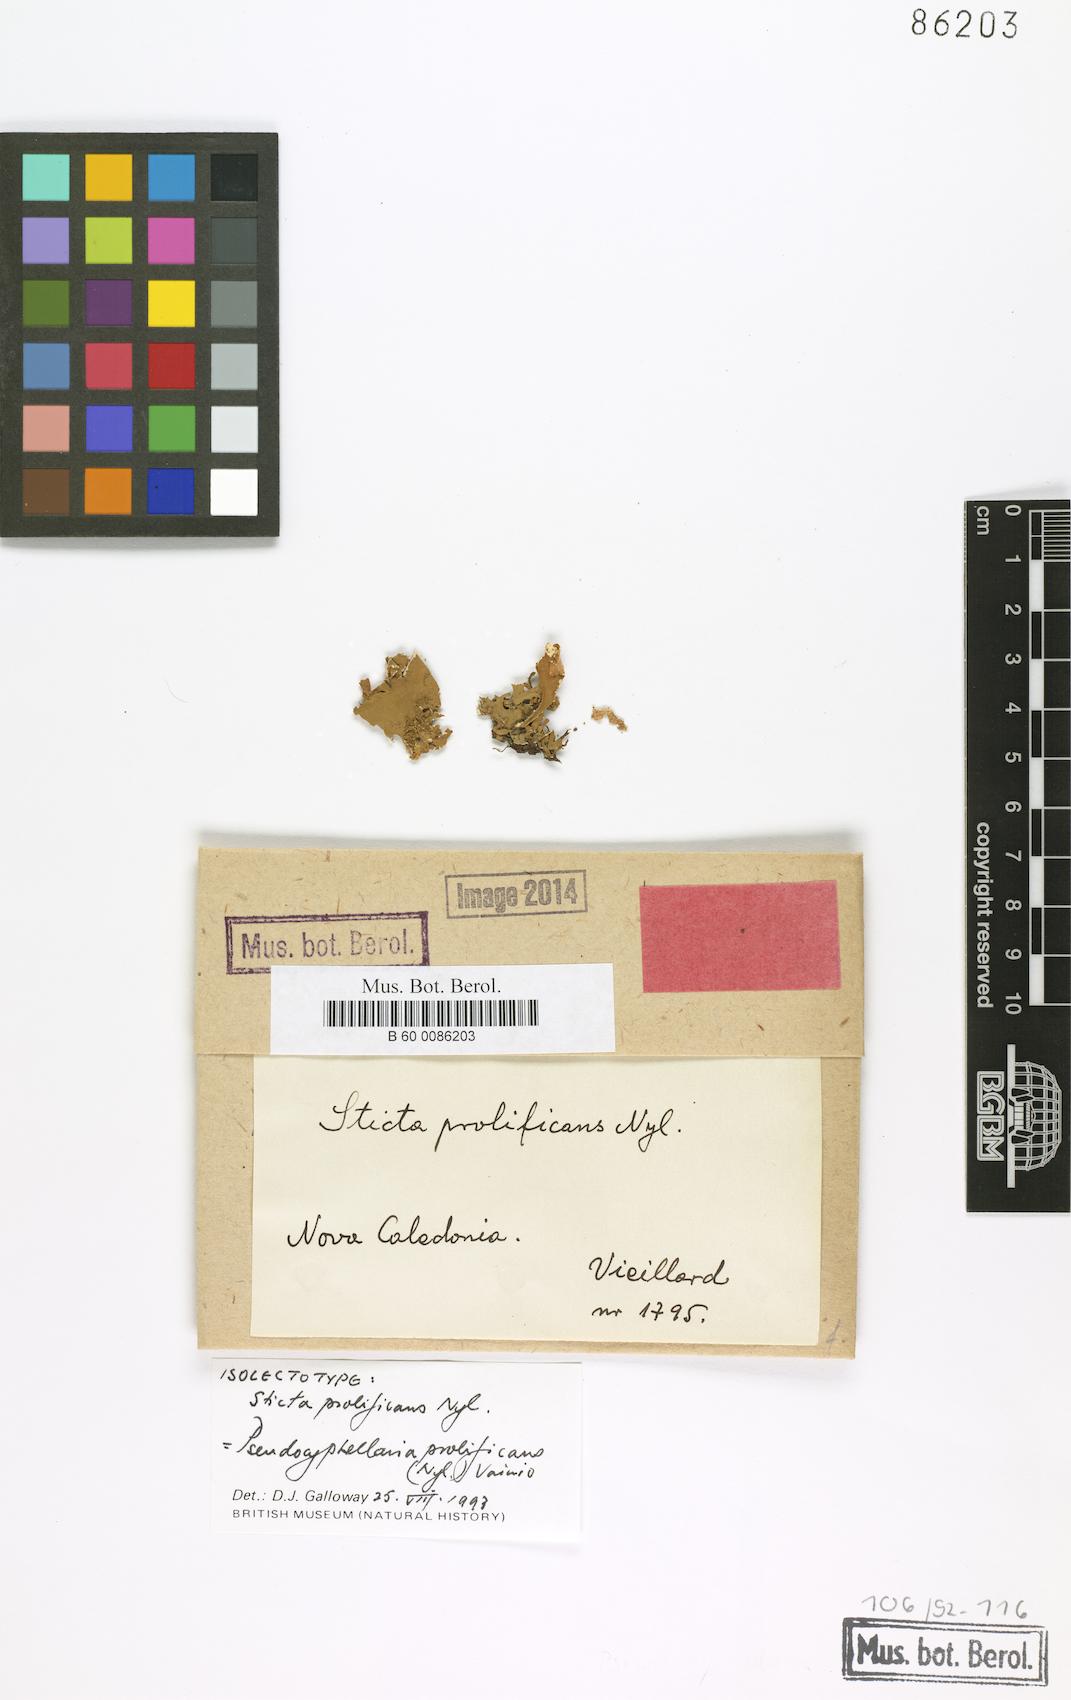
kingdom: Fungi
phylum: Ascomycota
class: Lecanoromycetes
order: Peltigerales
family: Lobariaceae
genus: Pseudocyphellaria
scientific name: Pseudocyphellaria prolificans
